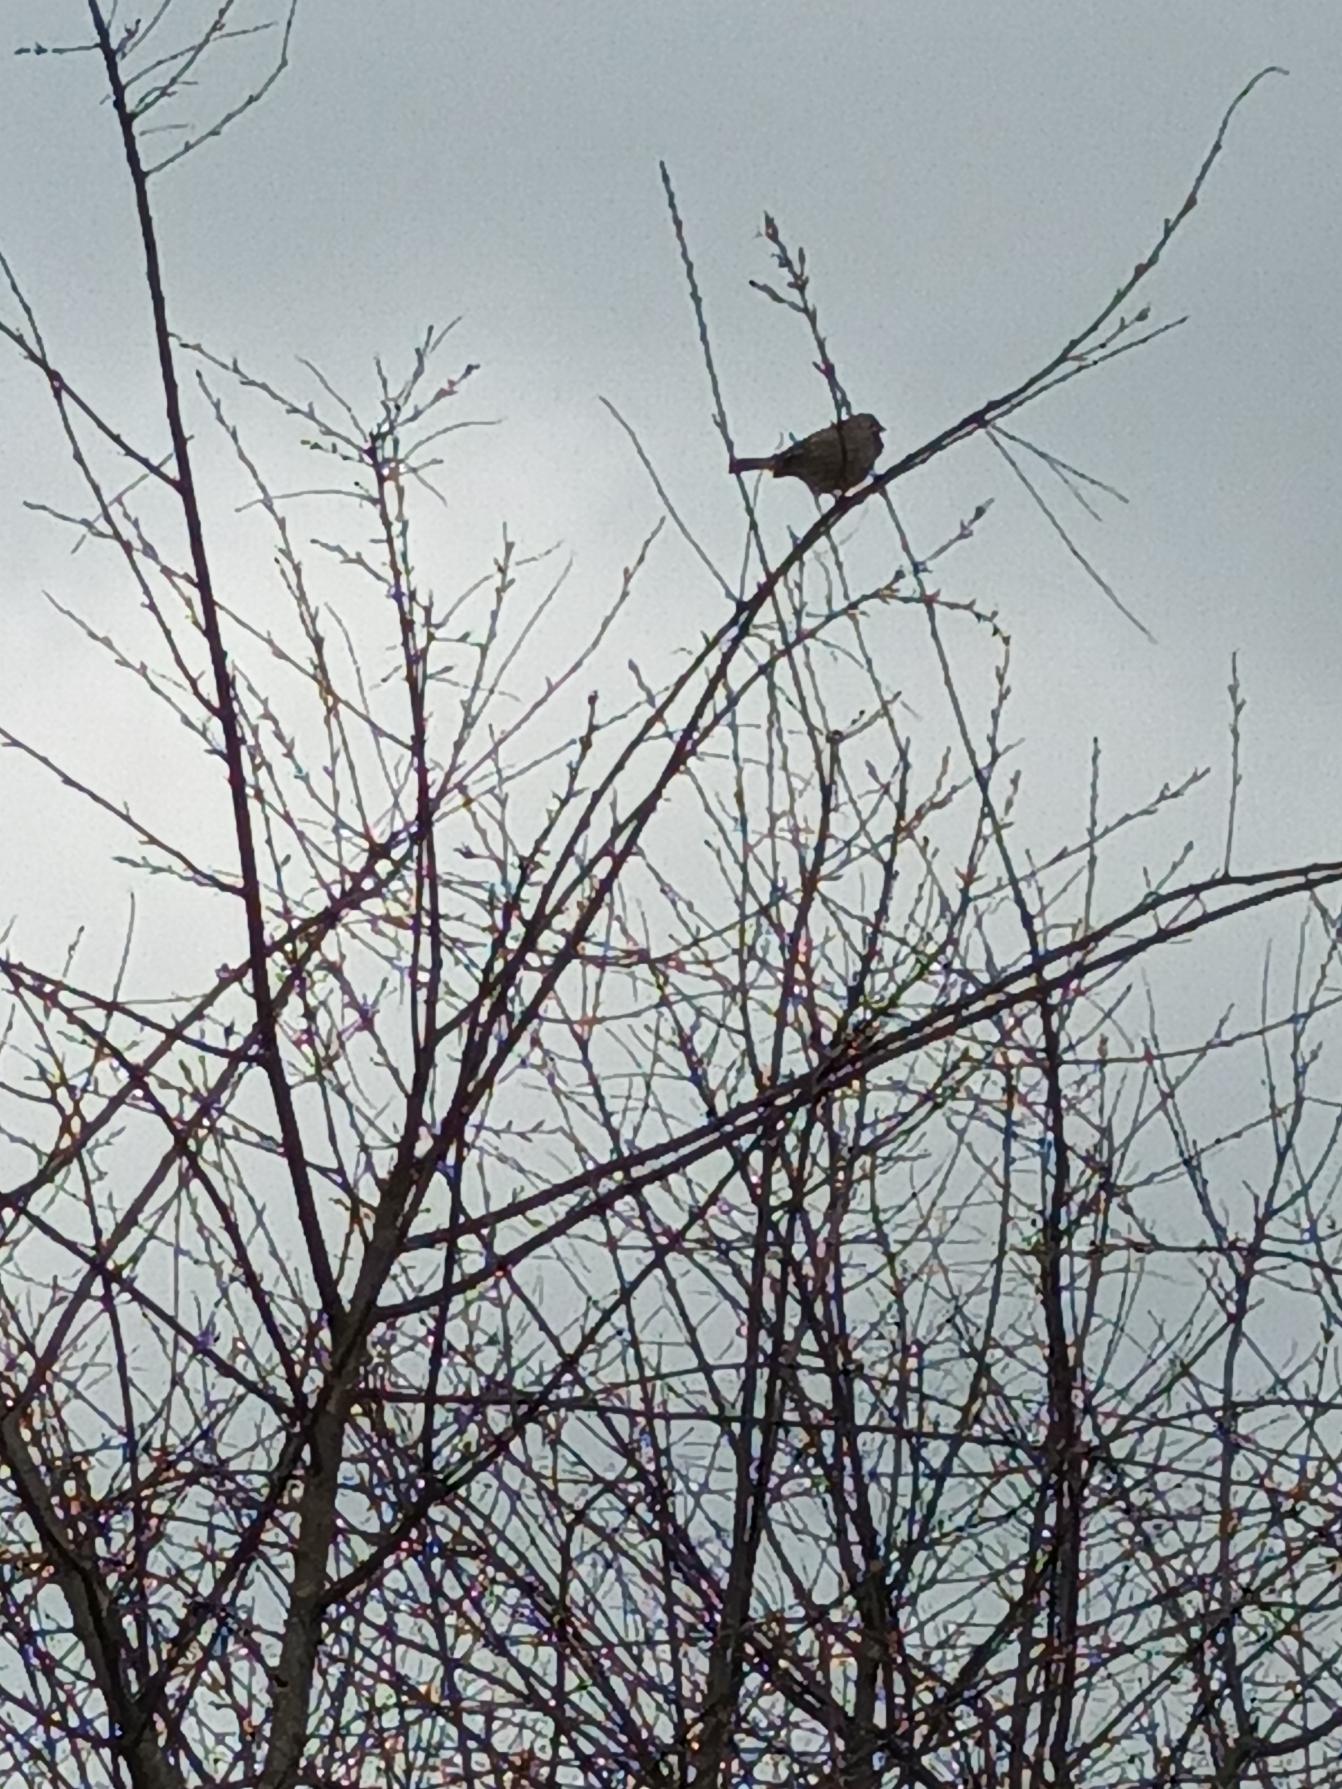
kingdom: Animalia
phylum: Chordata
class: Aves
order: Passeriformes
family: Emberizidae
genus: Emberiza
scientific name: Emberiza calandra
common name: Bomlærke
